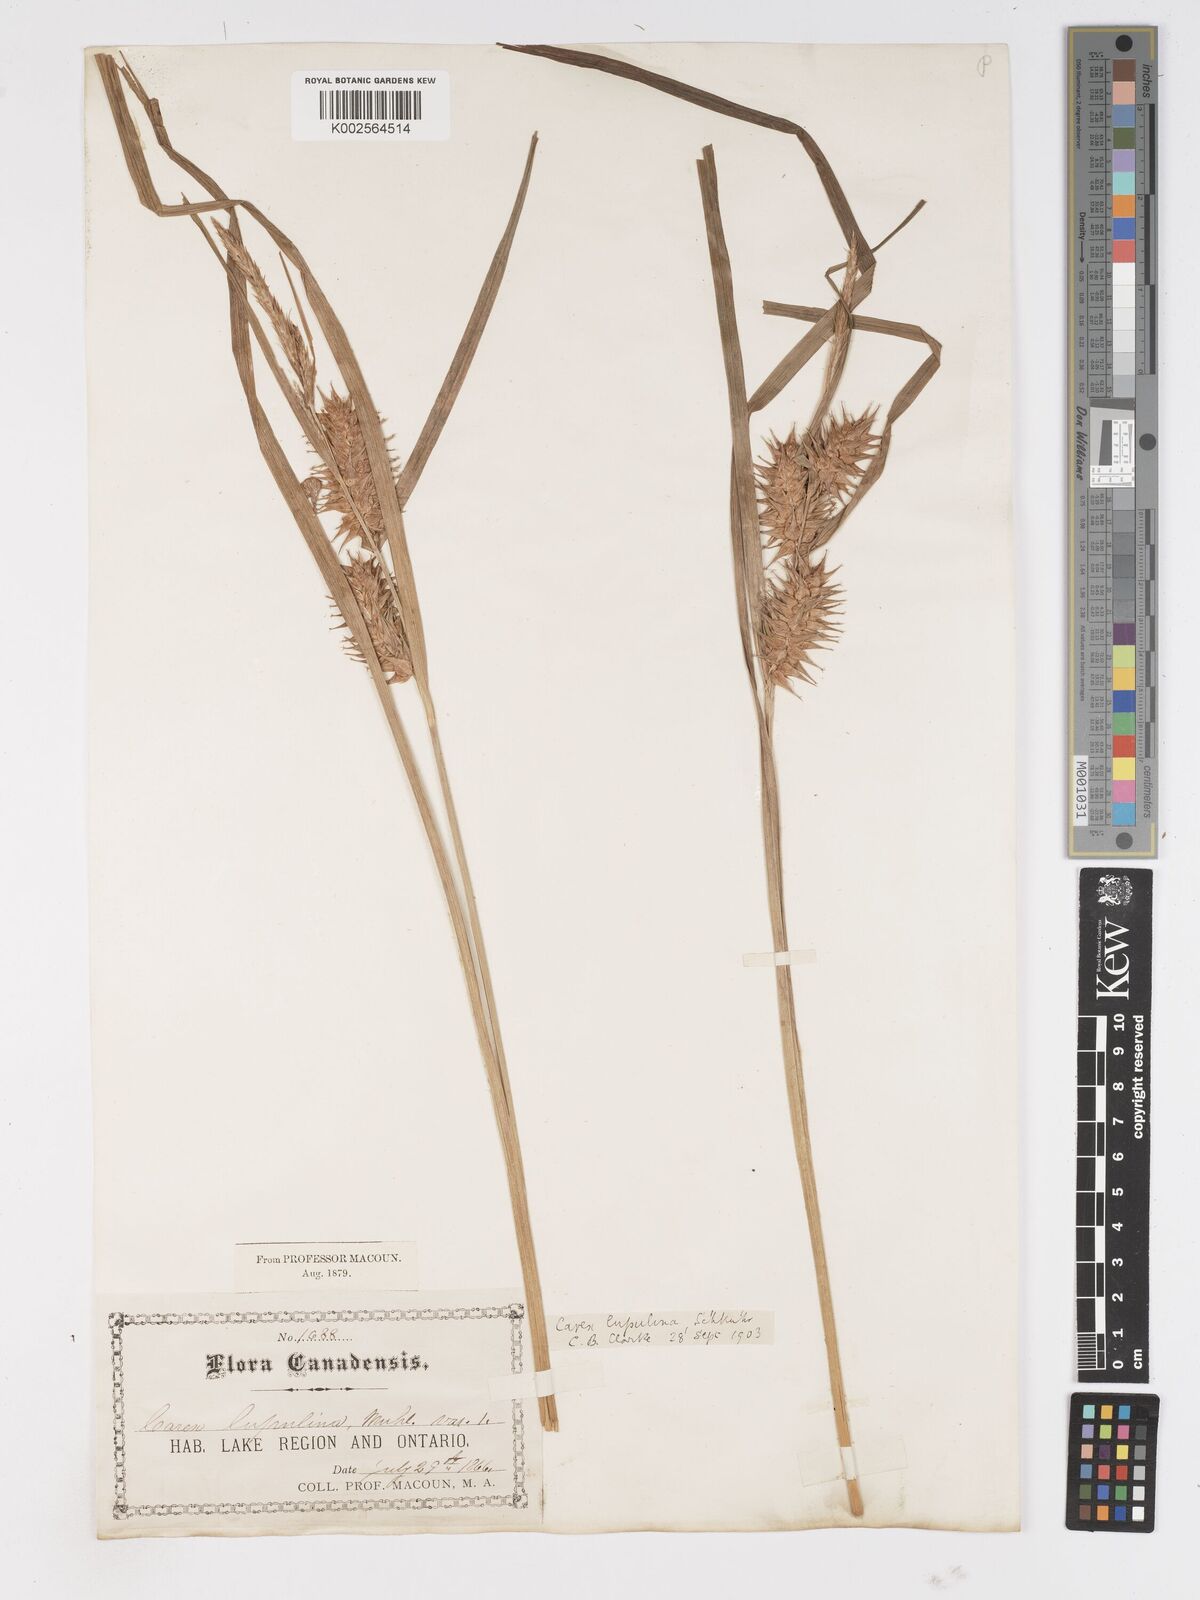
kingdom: Plantae
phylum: Tracheophyta
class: Liliopsida
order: Poales
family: Cyperaceae
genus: Carex
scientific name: Carex lupulina
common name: Hop sedge
